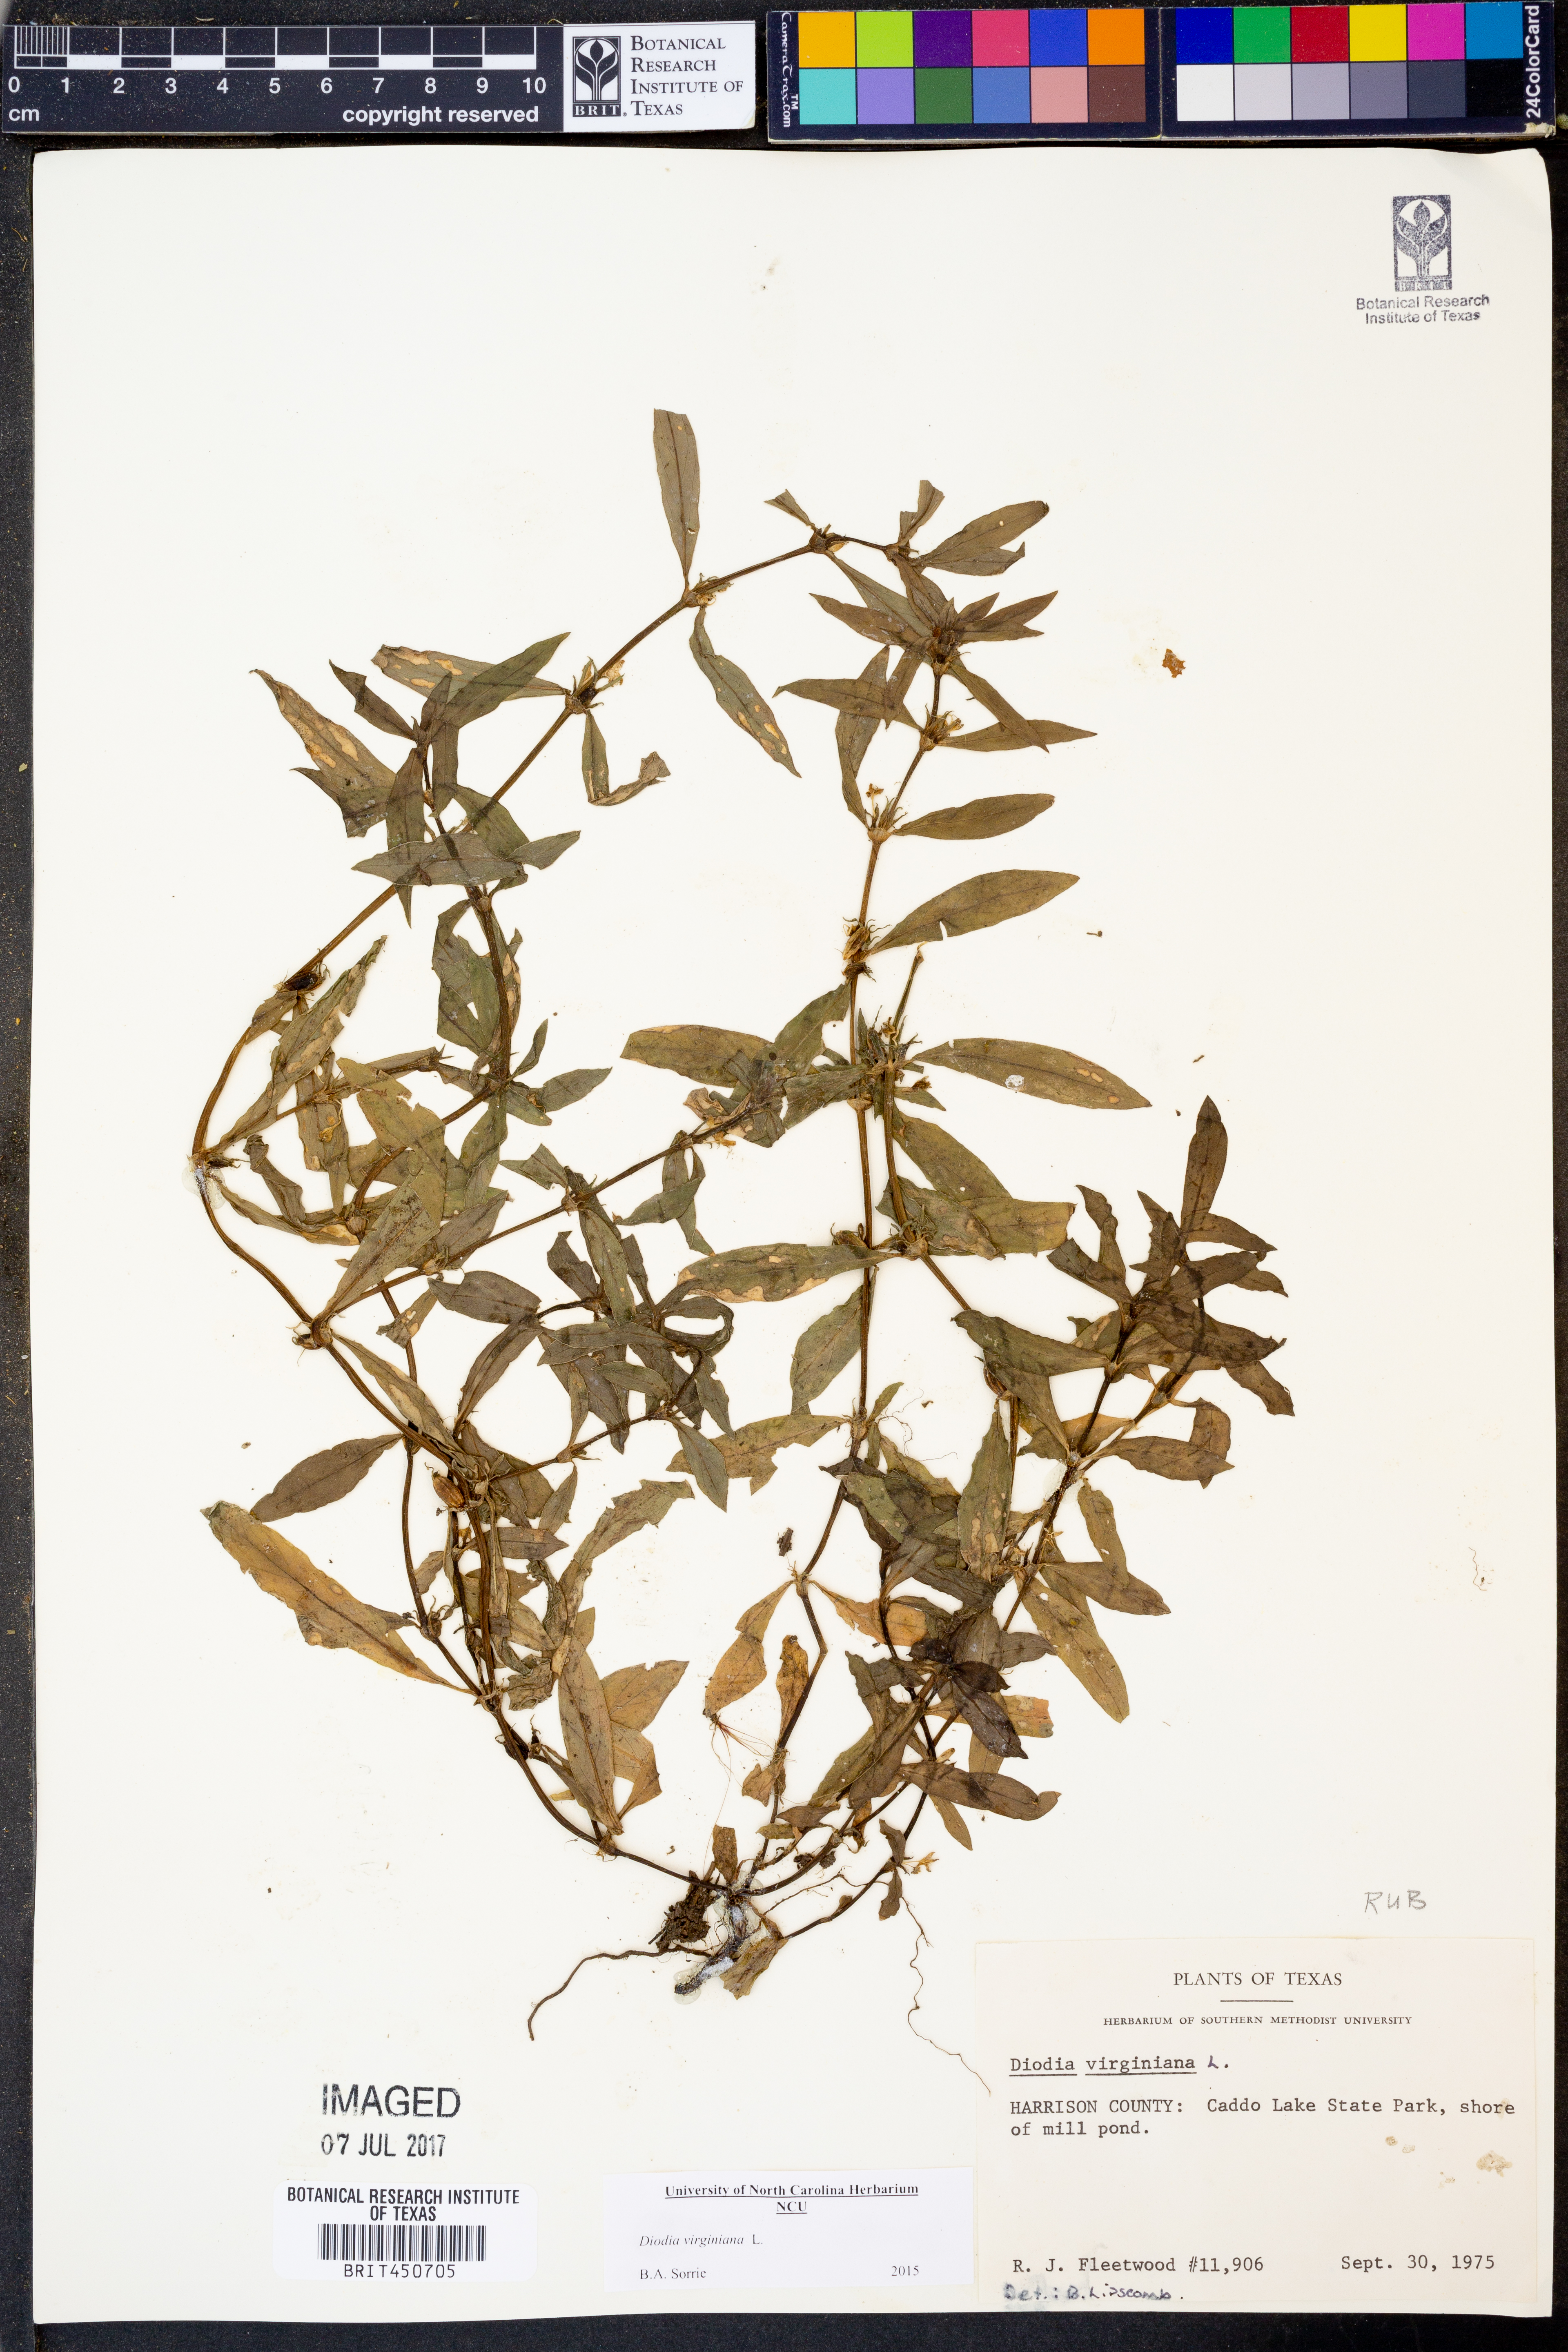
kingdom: Plantae
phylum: Tracheophyta
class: Magnoliopsida
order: Gentianales
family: Rubiaceae
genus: Diodia
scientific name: Diodia virginiana
